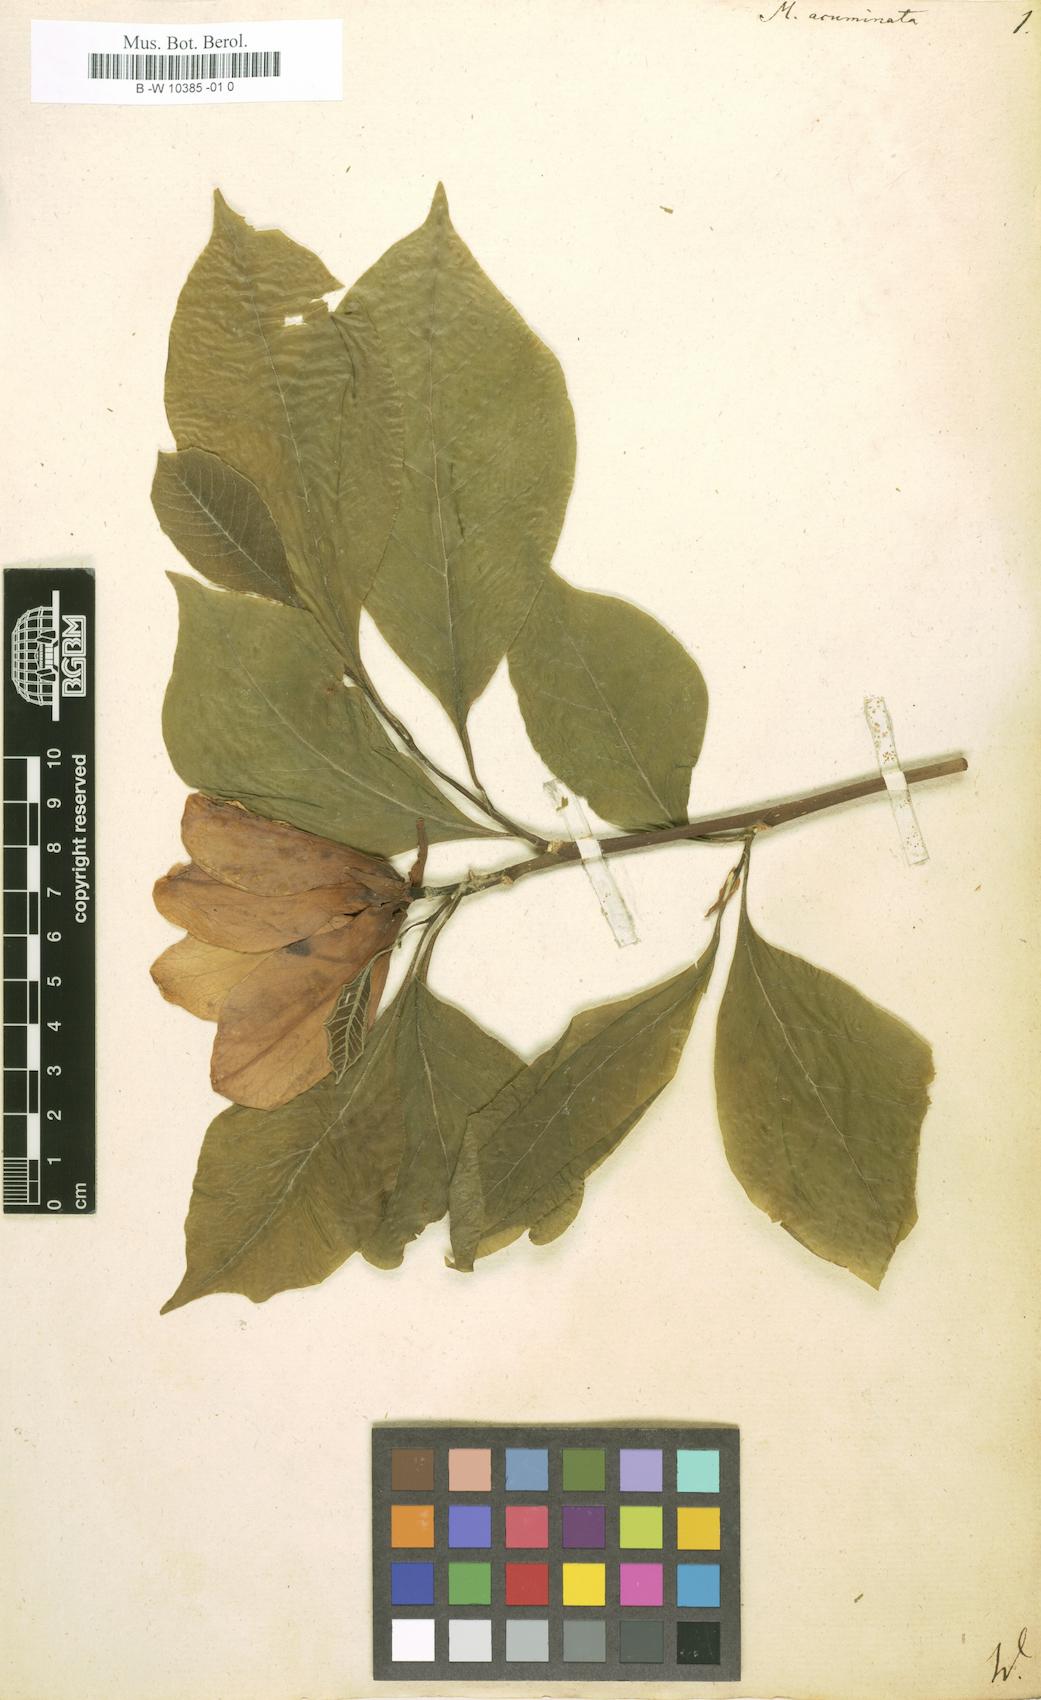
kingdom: Plantae
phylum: Tracheophyta
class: Magnoliopsida
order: Magnoliales
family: Magnoliaceae
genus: Magnolia
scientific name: Magnolia acuminata
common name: Cucumber magnolia
